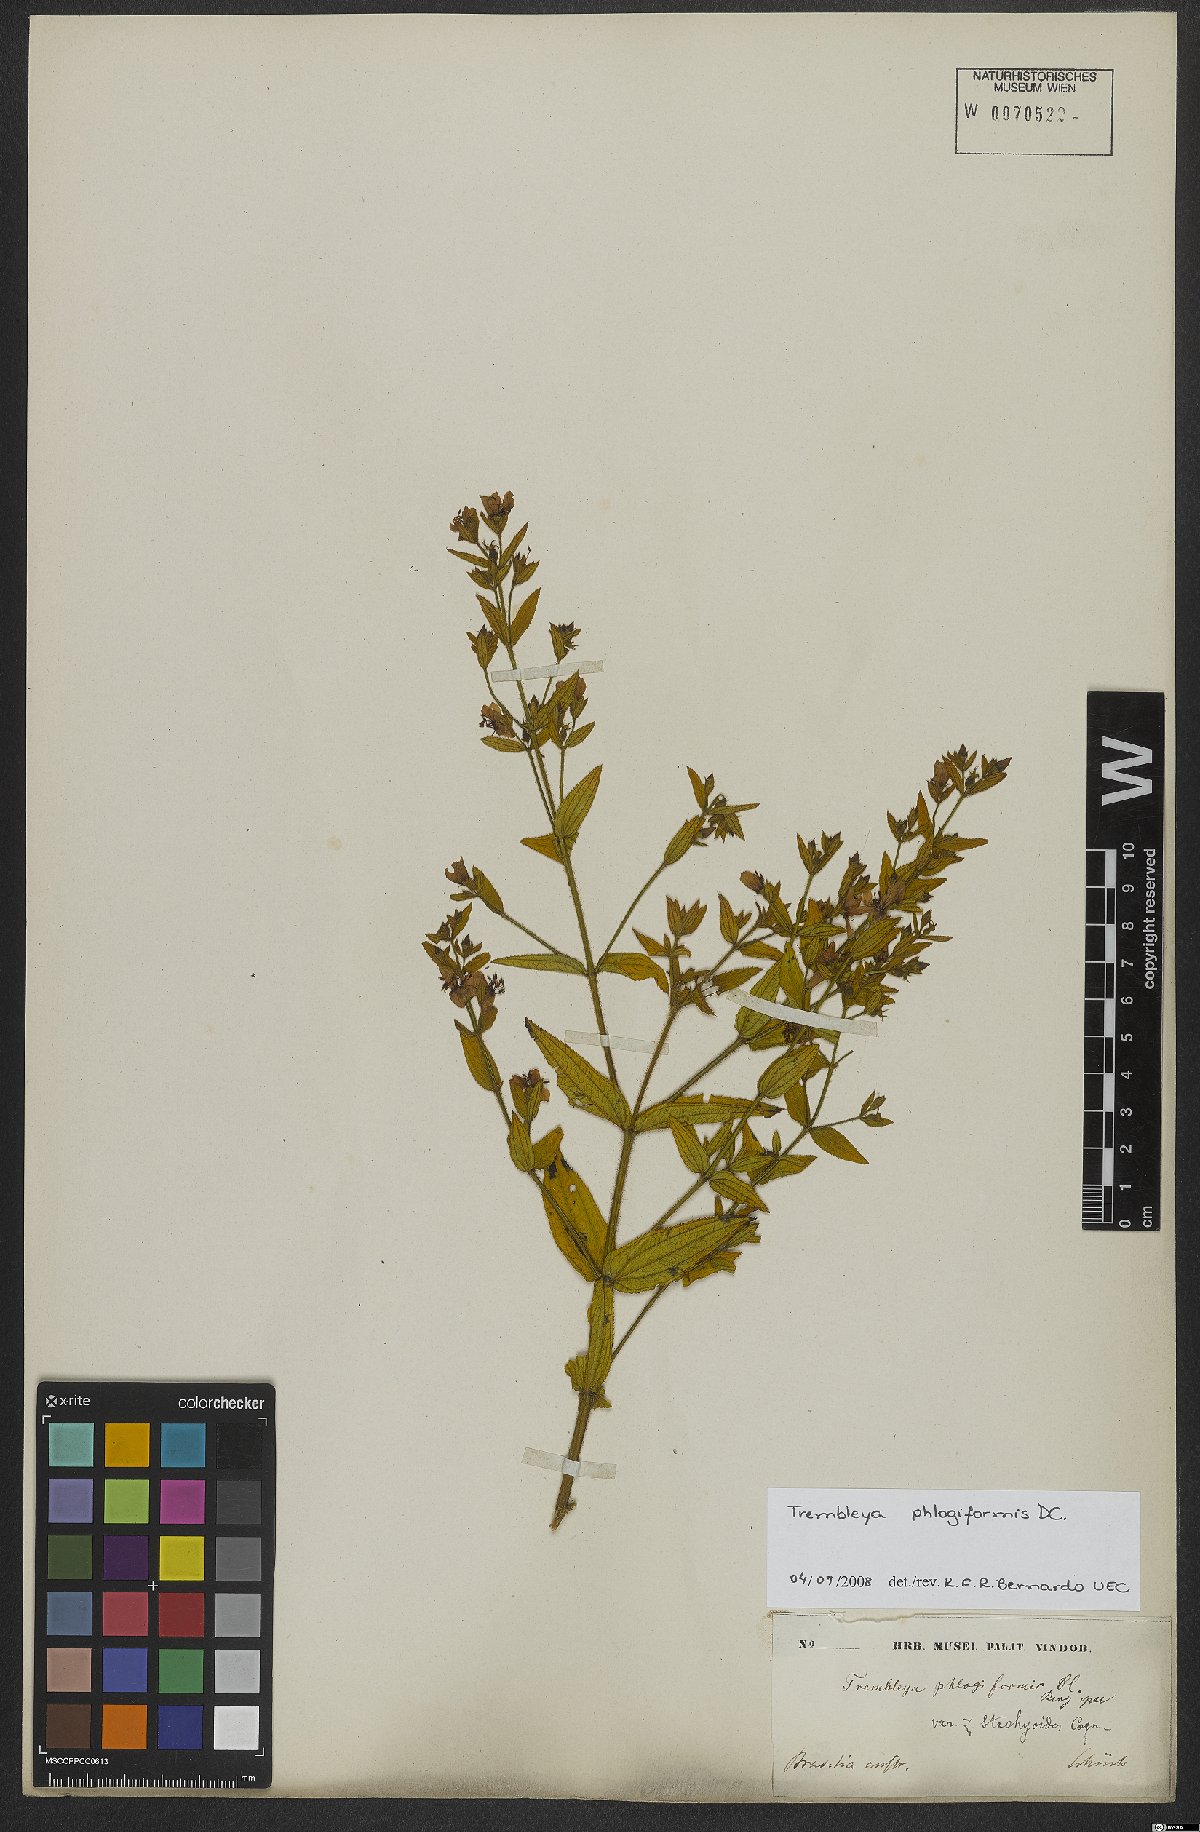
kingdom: Plantae
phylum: Tracheophyta
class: Magnoliopsida
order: Myrtales
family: Melastomataceae
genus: Microlicia
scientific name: Microlicia phlogiformis
